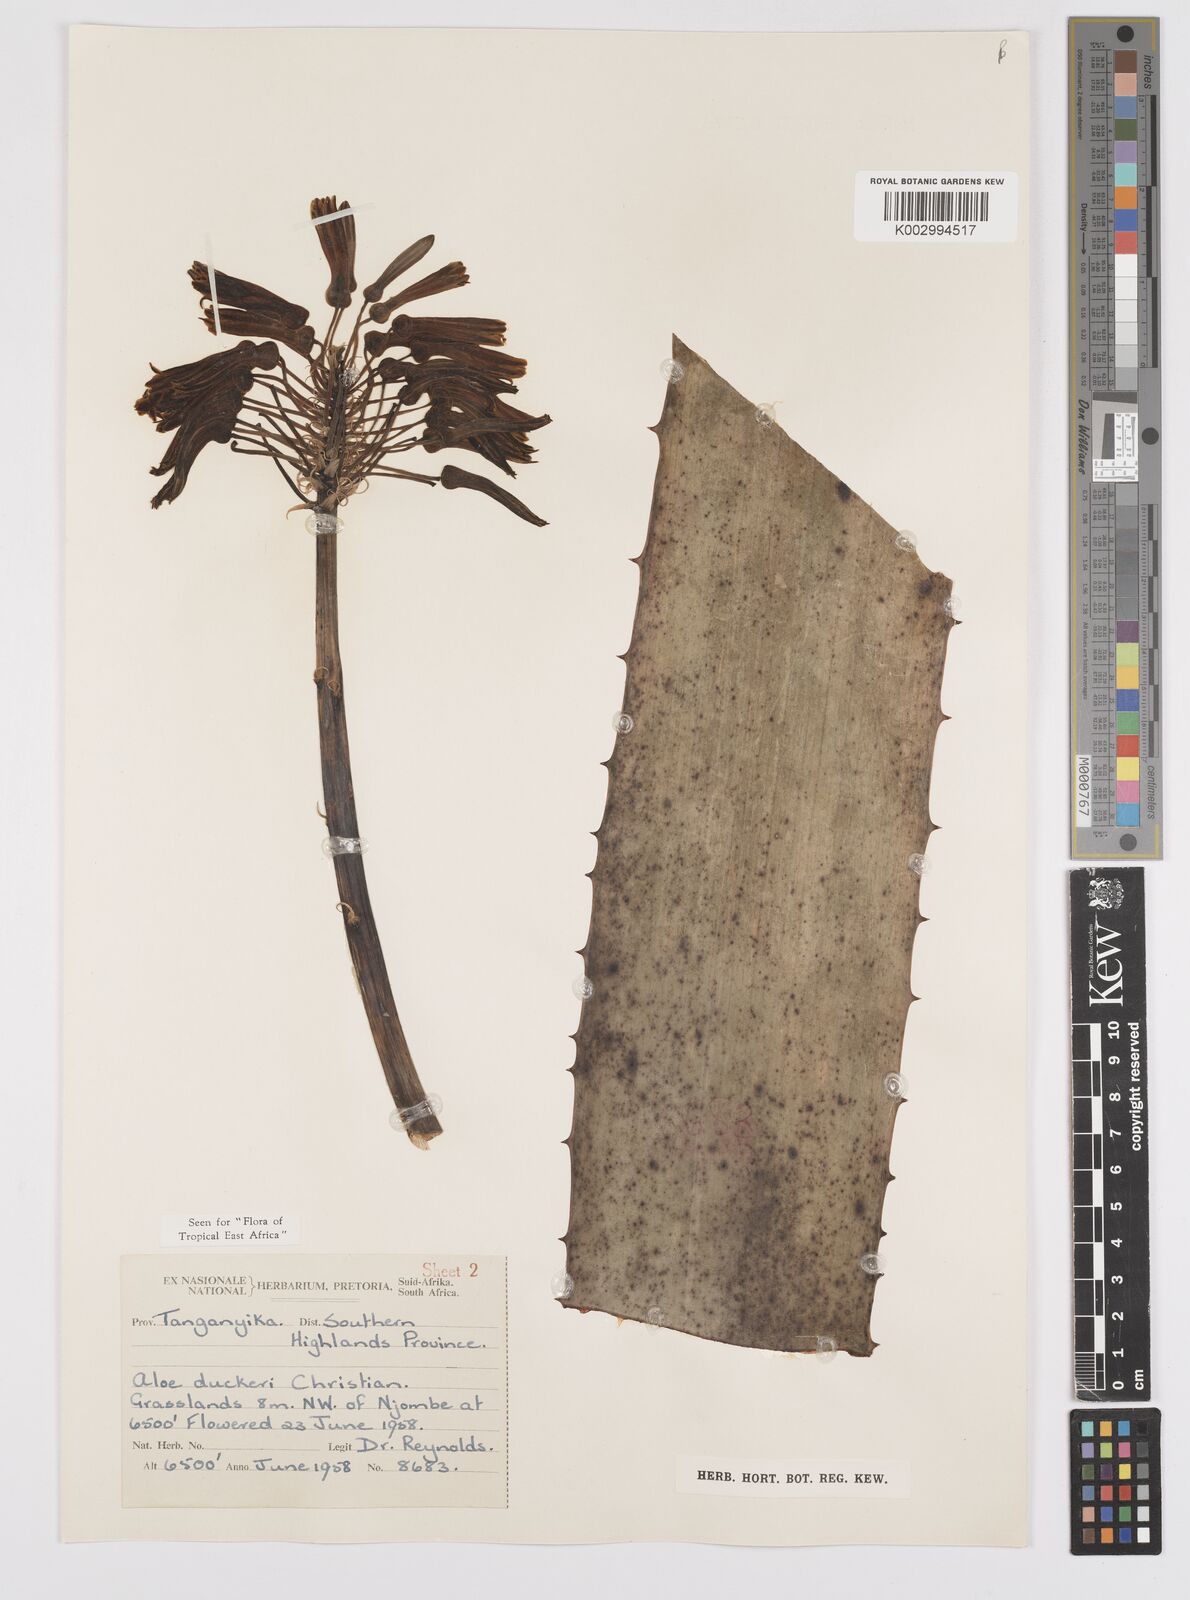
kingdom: Plantae
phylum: Tracheophyta
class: Liliopsida
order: Asparagales
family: Asphodelaceae
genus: Aloe
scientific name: Aloe duckeri
